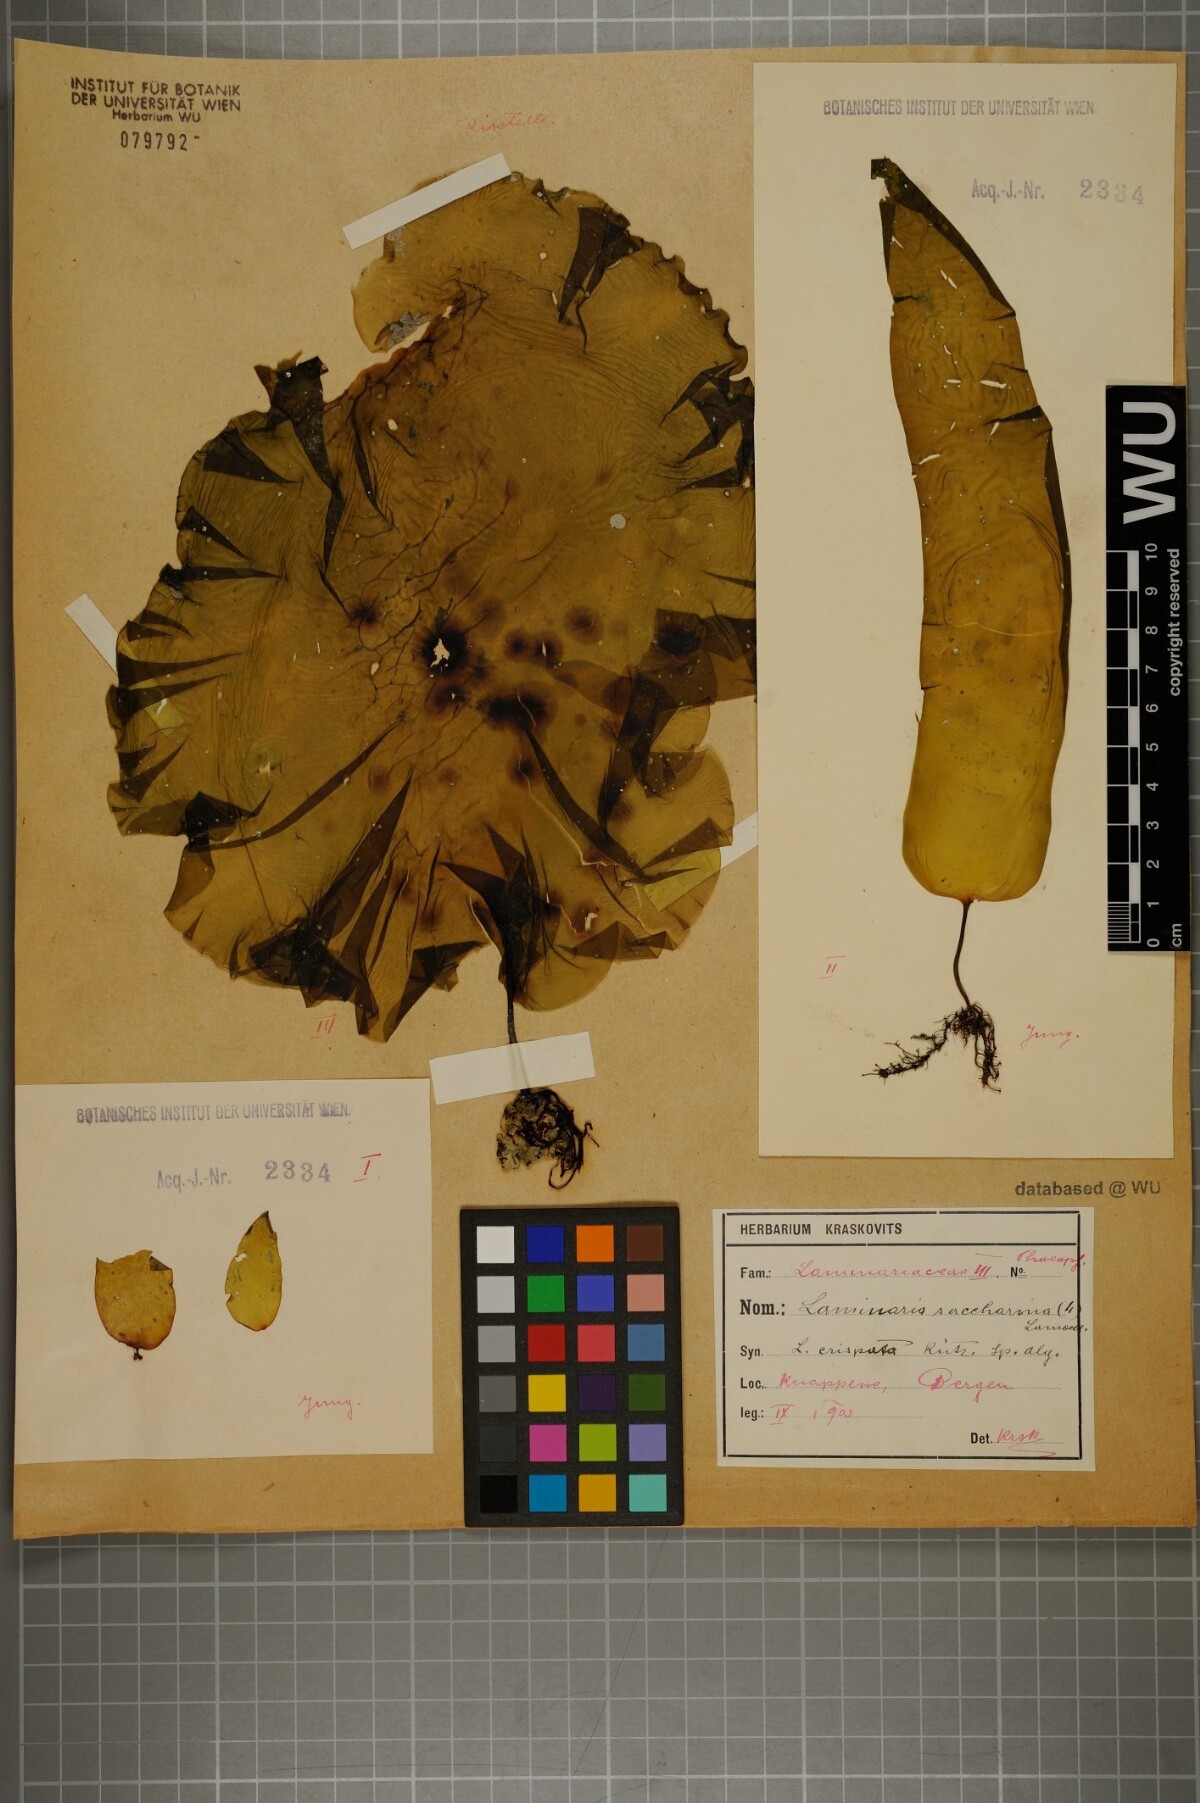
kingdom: Chromista
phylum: Ochrophyta
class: Phaeophyceae
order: Laminariales
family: Laminariaceae
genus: Saccharina
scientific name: Saccharina latissima
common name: Poor man's weather glass
